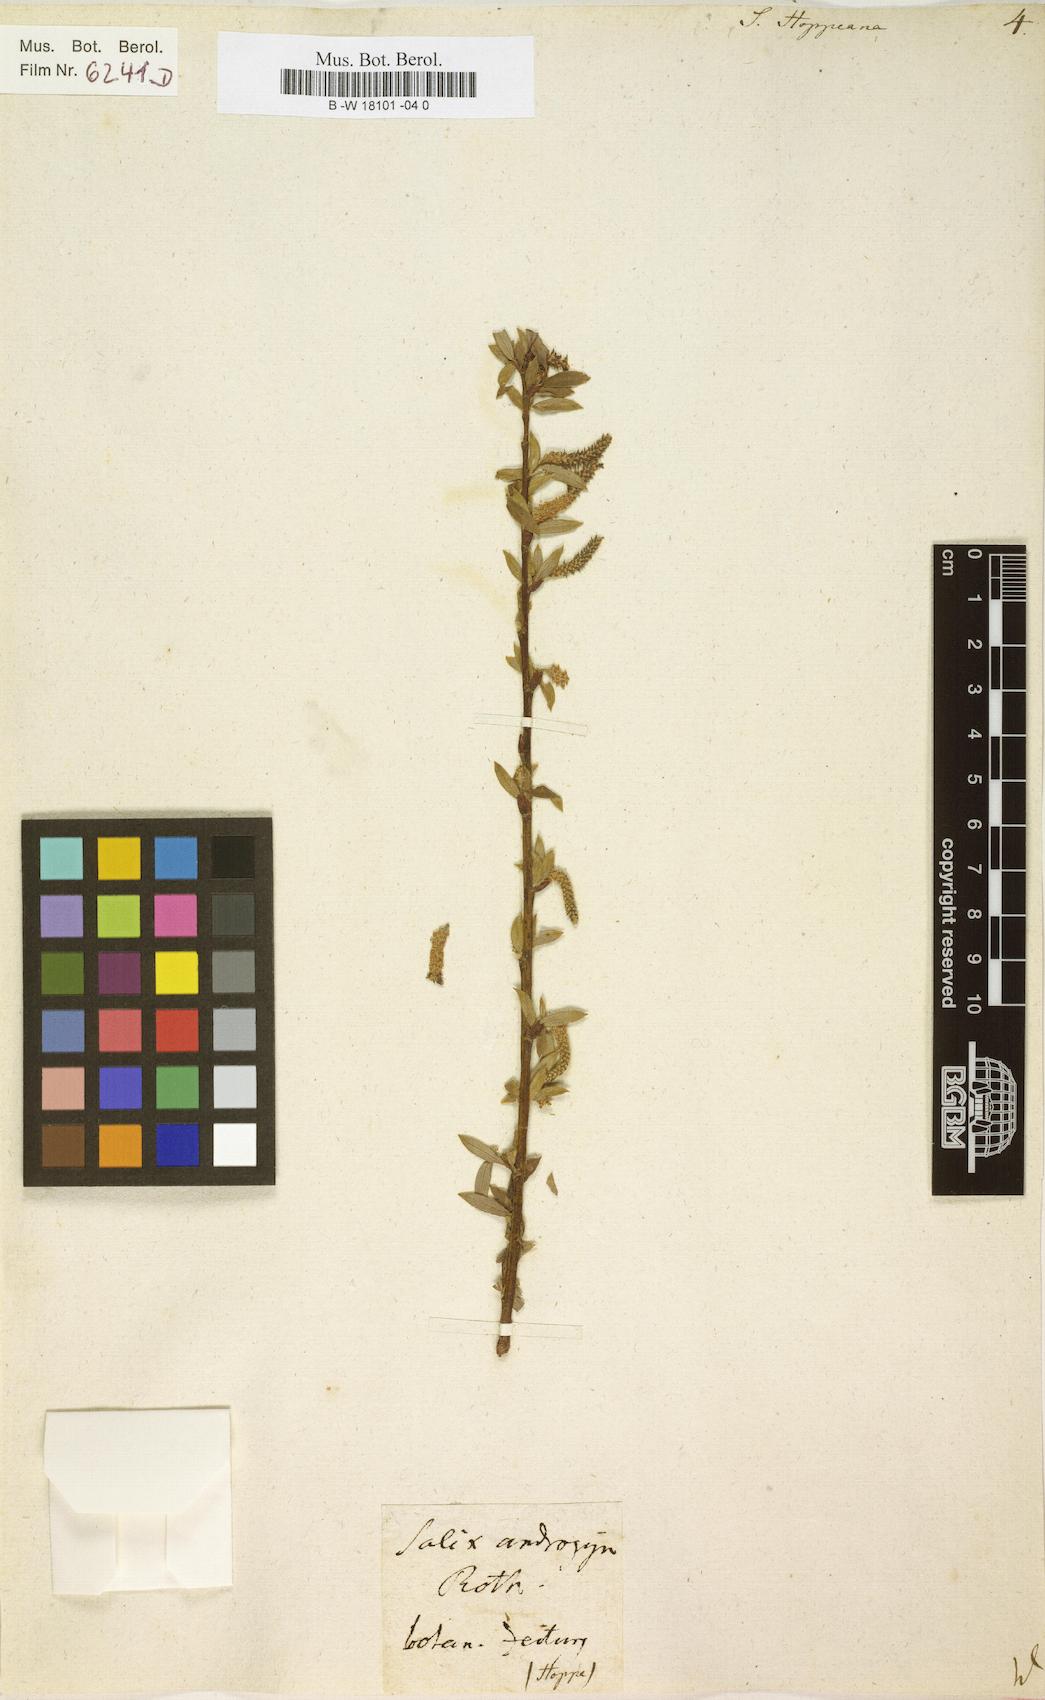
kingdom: Plantae
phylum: Tracheophyta
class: Magnoliopsida
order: Malpighiales
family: Salicaceae
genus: Salix
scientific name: Salix triandra
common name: Almond willow
